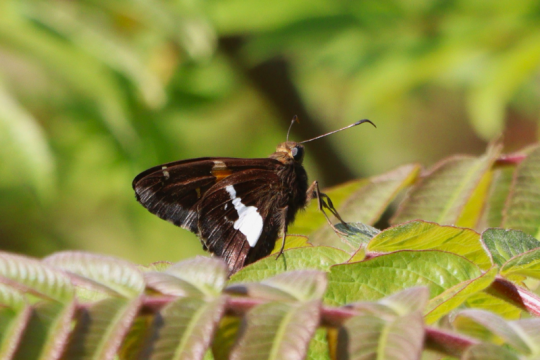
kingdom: Animalia
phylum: Arthropoda
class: Insecta
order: Lepidoptera
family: Hesperiidae
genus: Epargyreus
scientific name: Epargyreus clarus
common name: Silver-spotted Skipper
